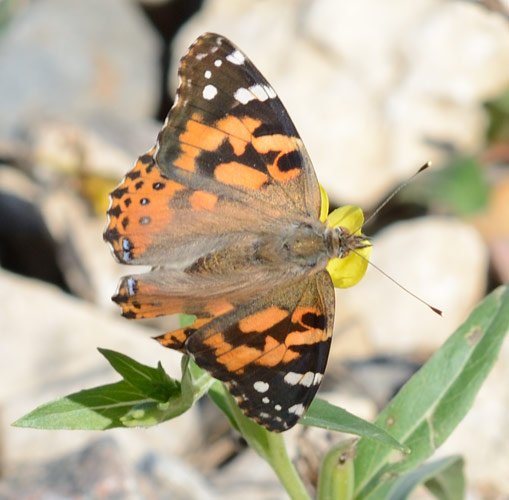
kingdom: Animalia
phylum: Arthropoda
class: Insecta
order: Lepidoptera
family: Nymphalidae
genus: Vanessa
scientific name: Vanessa cardui
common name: Painted Lady
